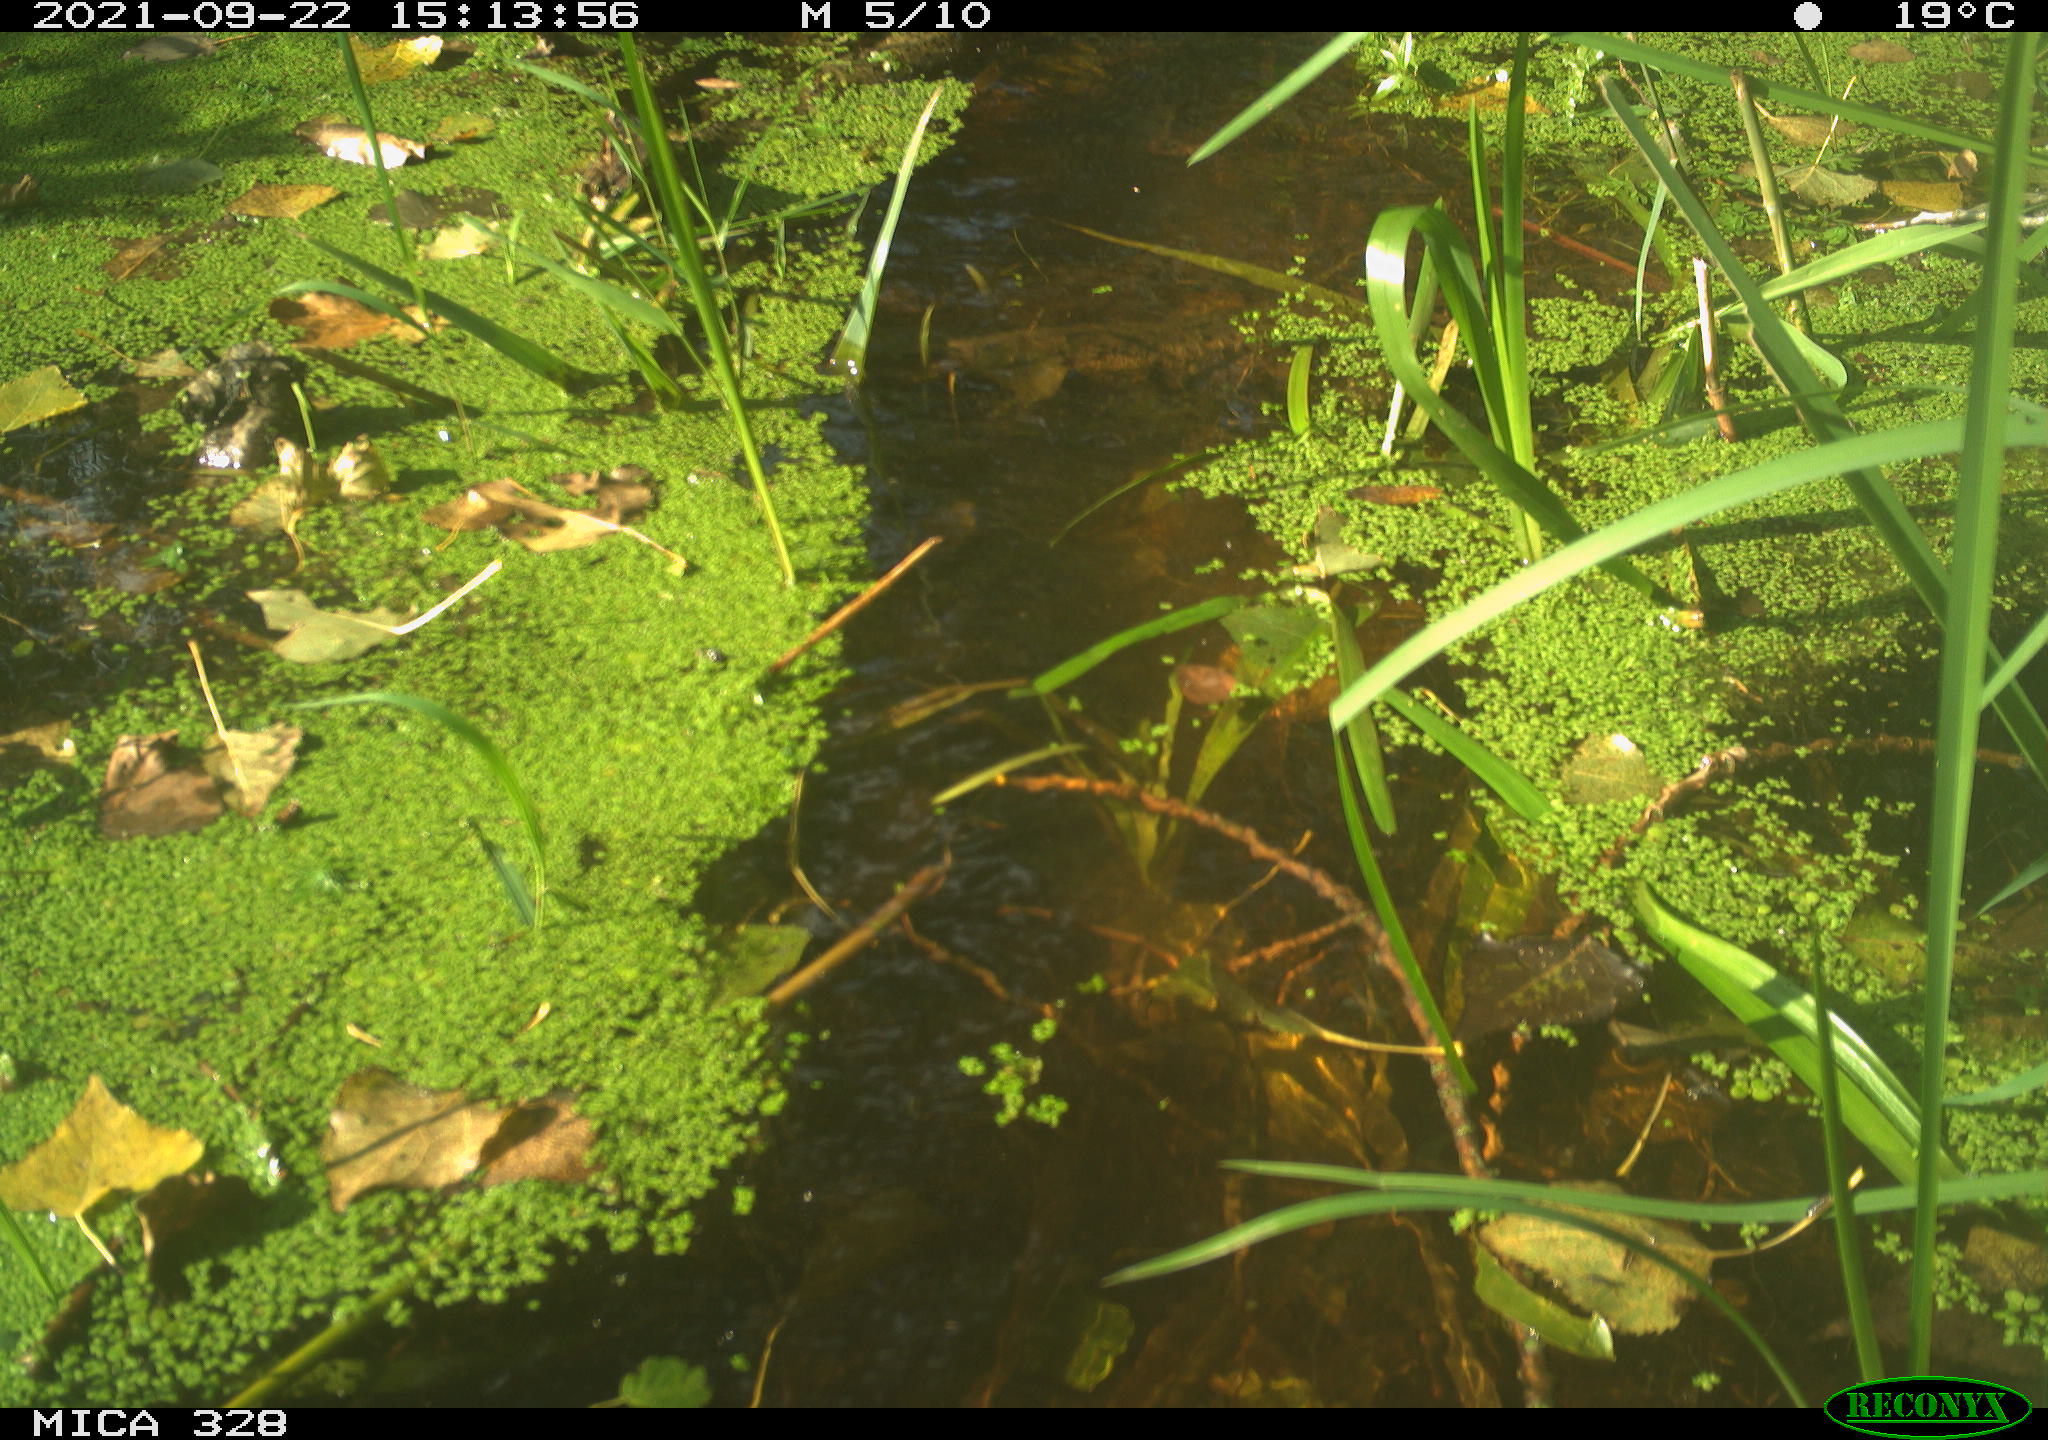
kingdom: Animalia
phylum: Chordata
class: Mammalia
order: Rodentia
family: Cricetidae
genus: Ondatra
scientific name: Ondatra zibethicus
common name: Muskrat
